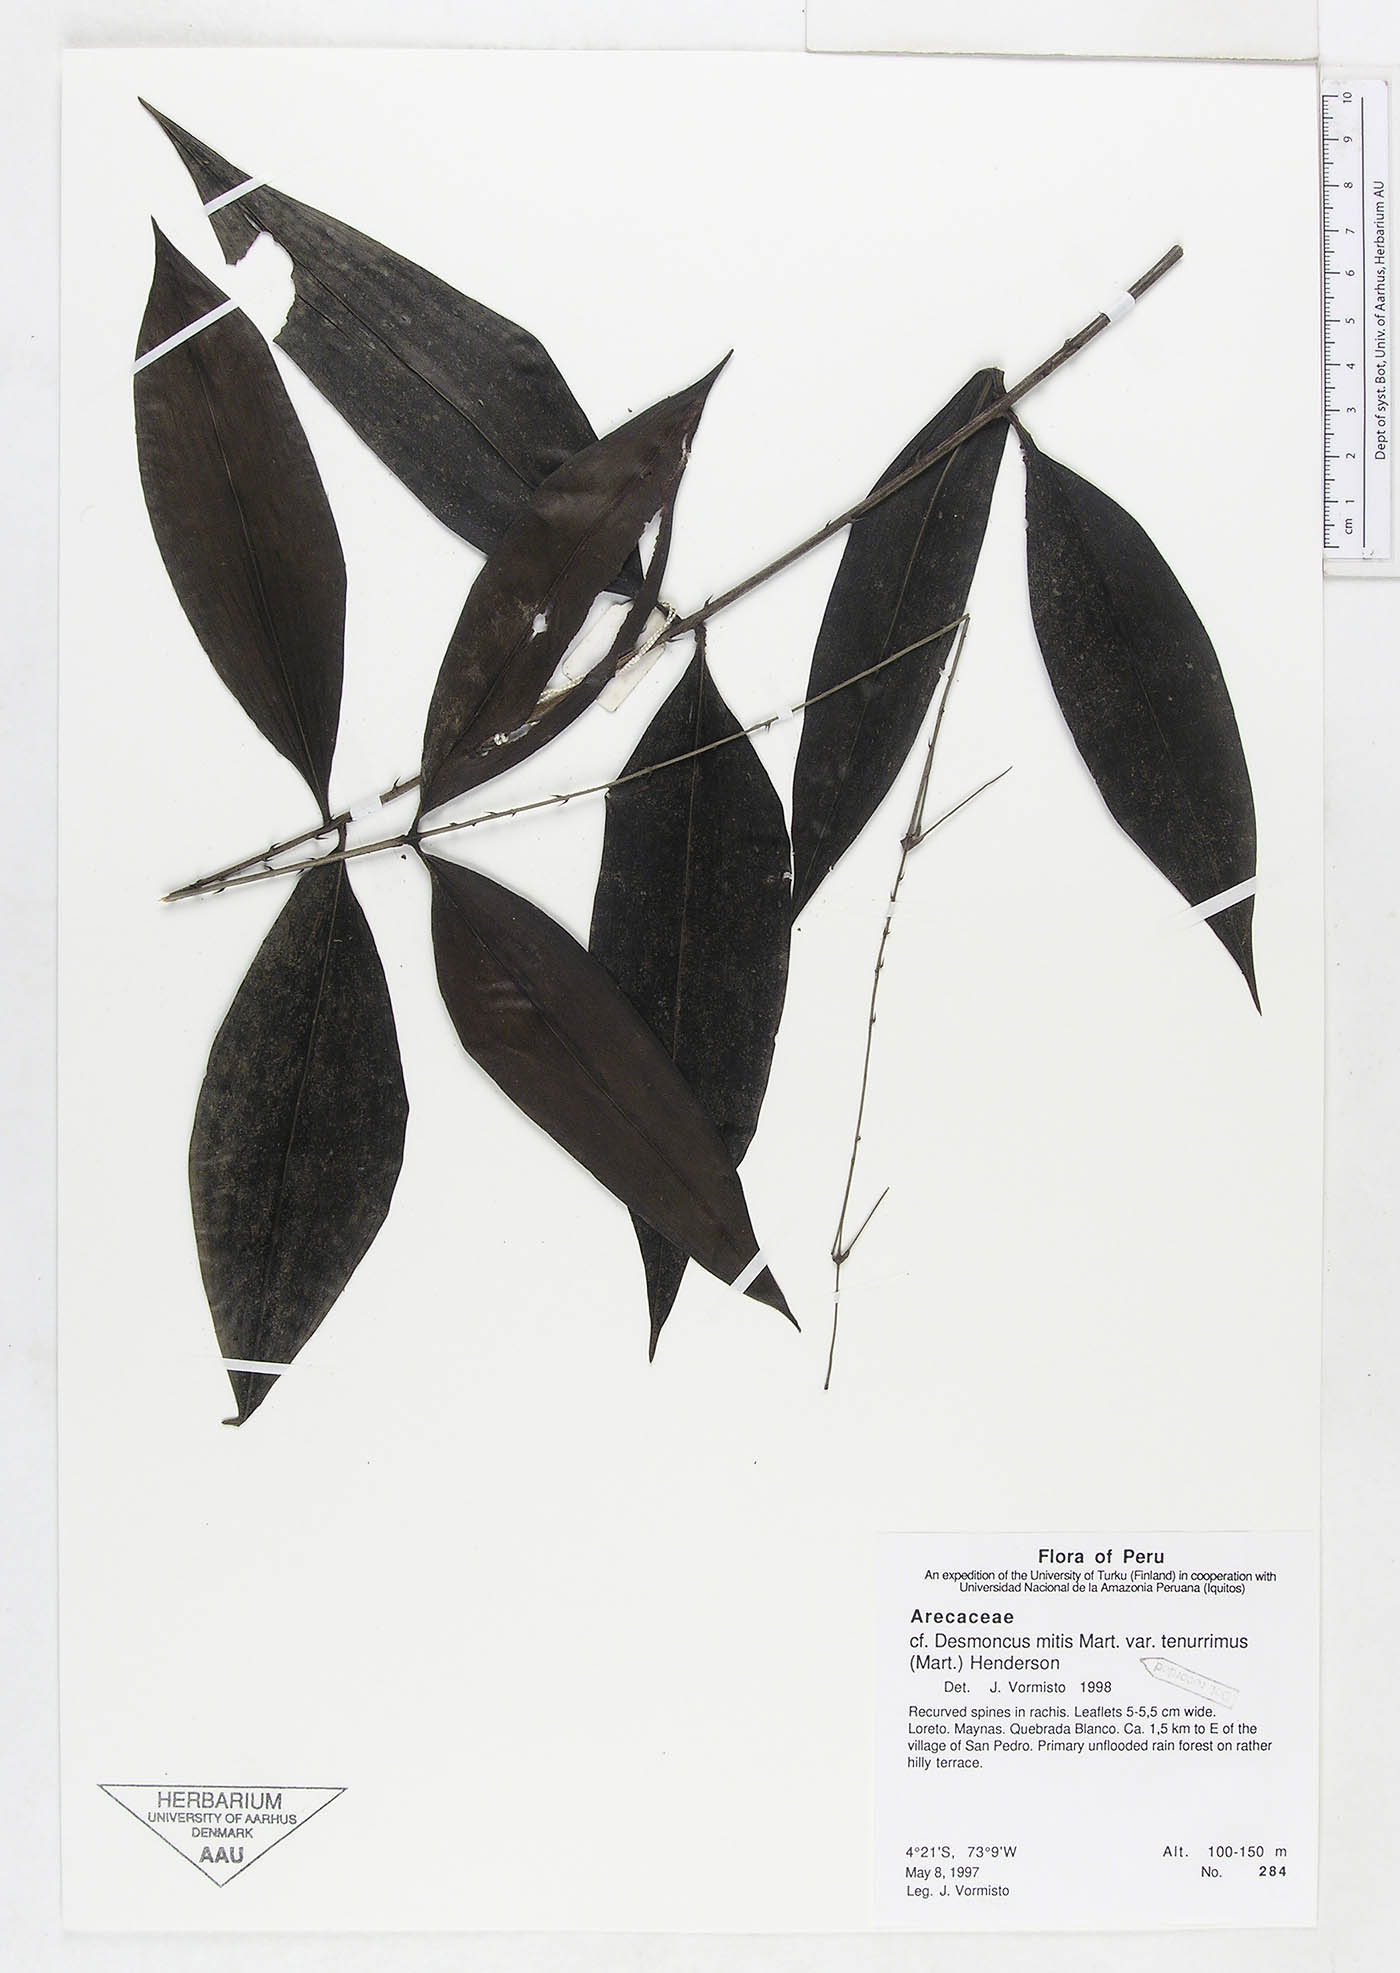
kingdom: Plantae
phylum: Tracheophyta
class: Liliopsida
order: Arecales
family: Arecaceae
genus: Desmoncus
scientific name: Desmoncus vacivus
